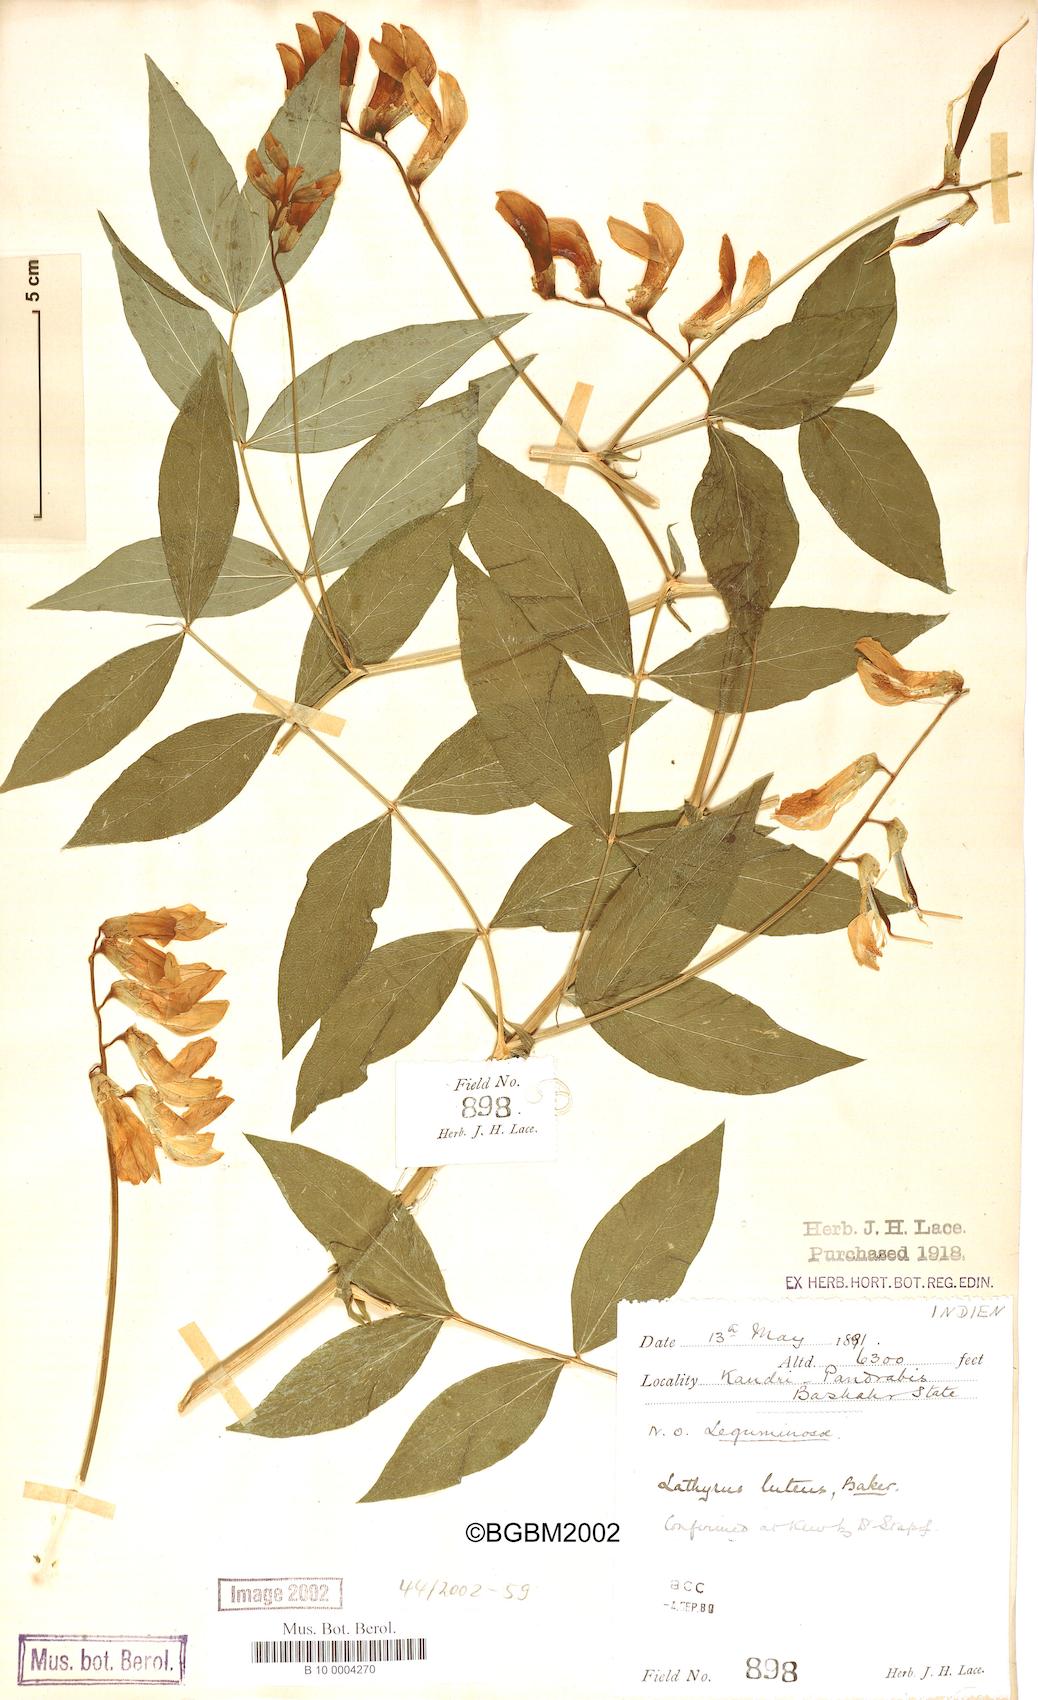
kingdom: Plantae
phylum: Tracheophyta
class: Magnoliopsida
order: Fabales
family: Fabaceae
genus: Lathyrus
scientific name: Lathyrus gmelinii
